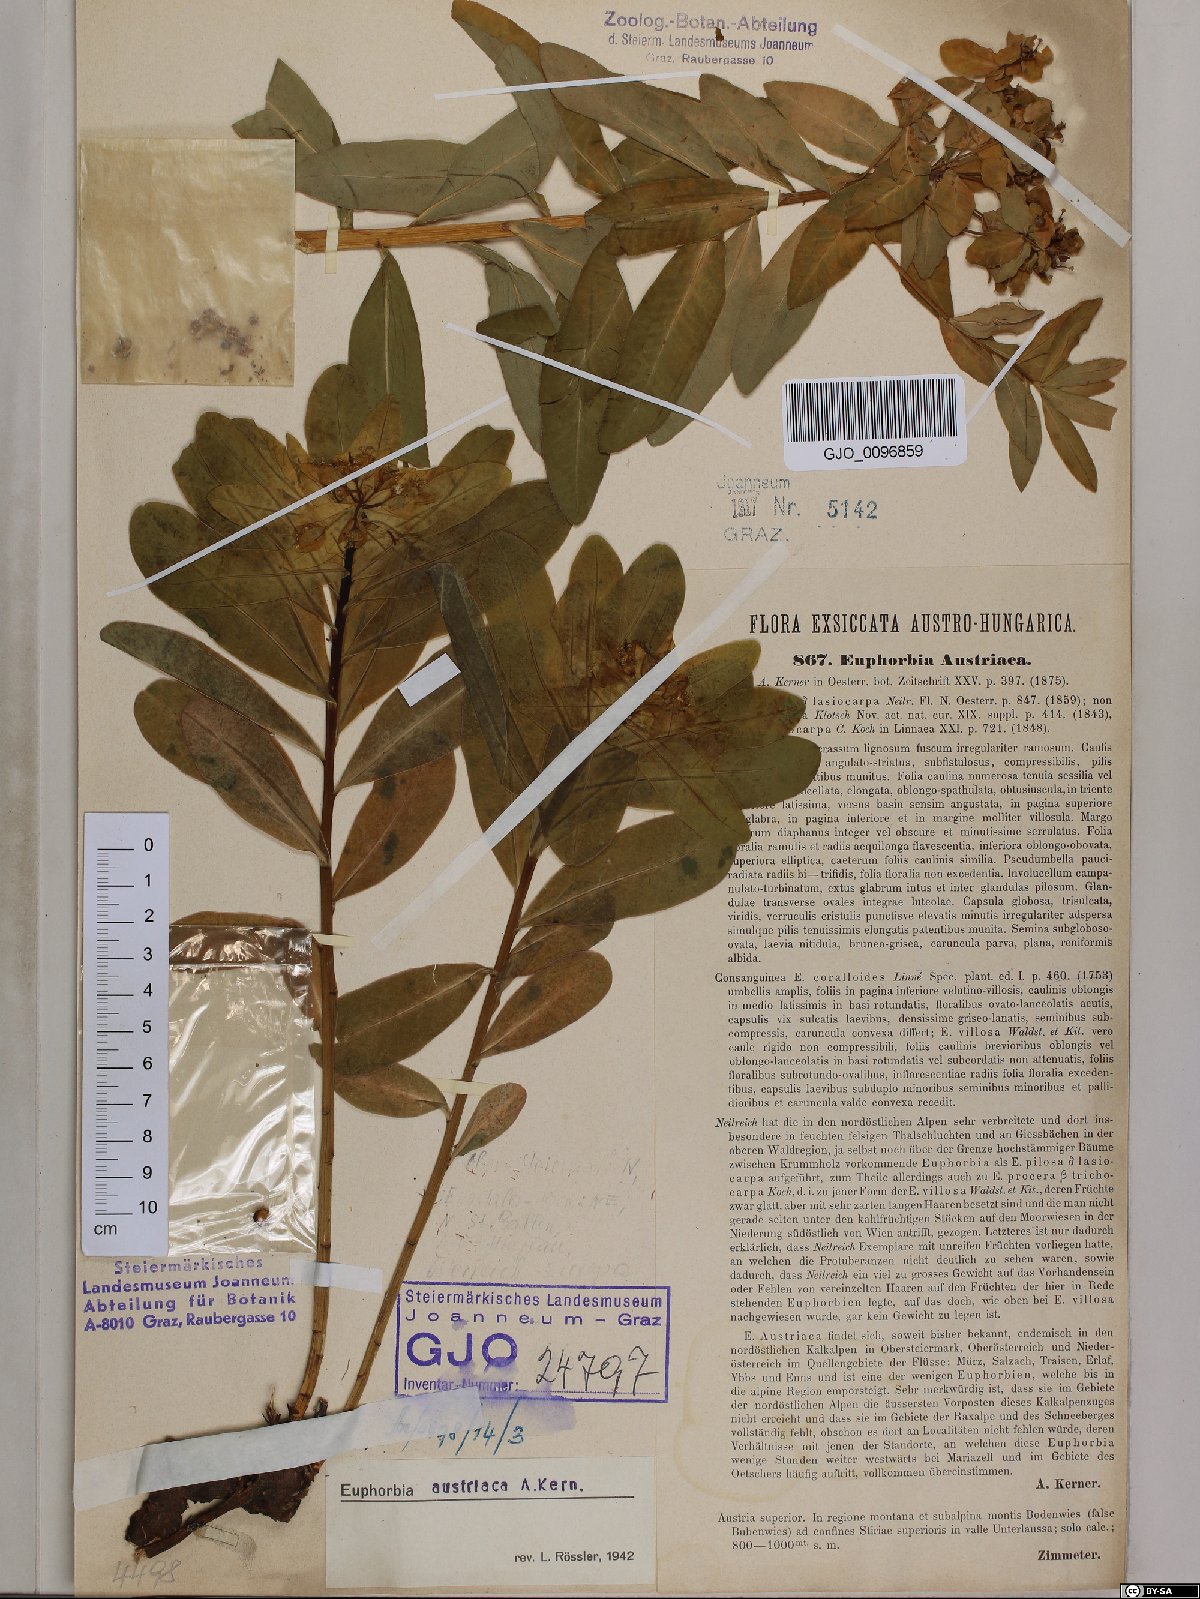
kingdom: Plantae
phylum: Tracheophyta
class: Magnoliopsida
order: Malpighiales
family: Euphorbiaceae
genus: Euphorbia
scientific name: Euphorbia austriaca
